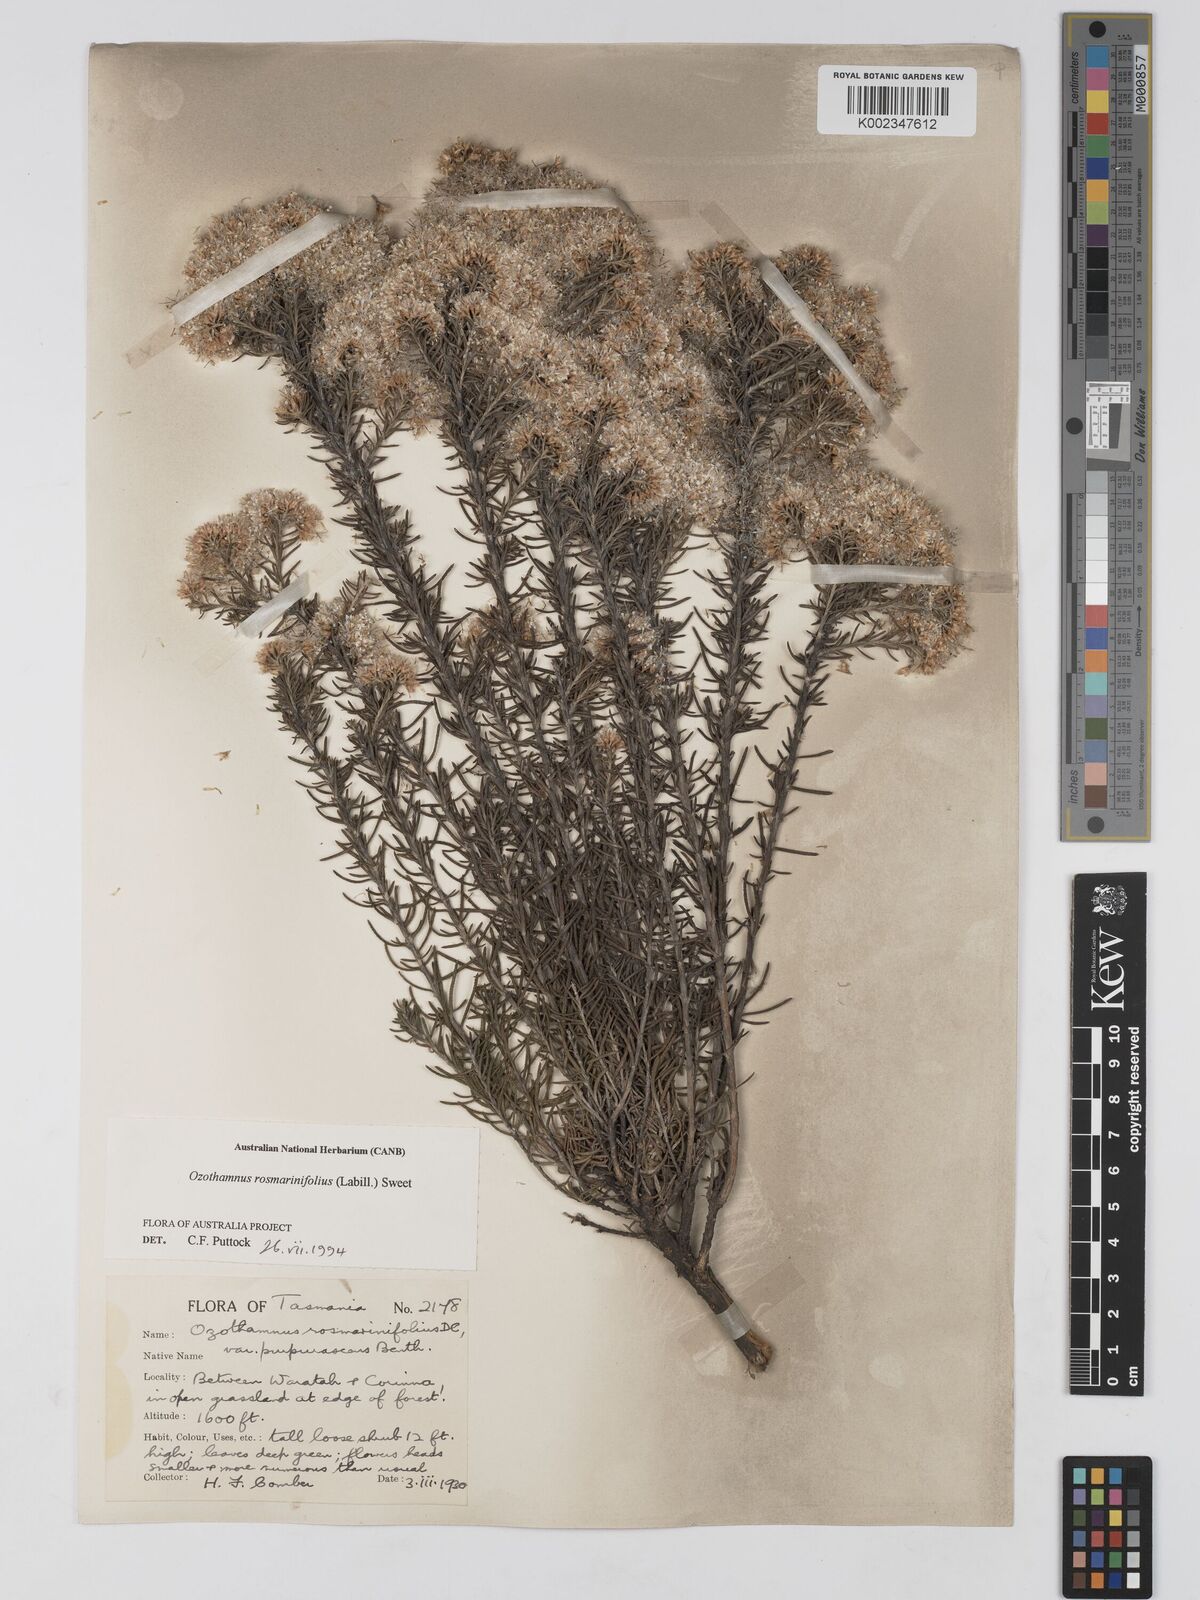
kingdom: Plantae
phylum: Tracheophyta
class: Magnoliopsida
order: Asterales
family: Asteraceae
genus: Ozothamnus
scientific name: Ozothamnus rosmarinifolius
